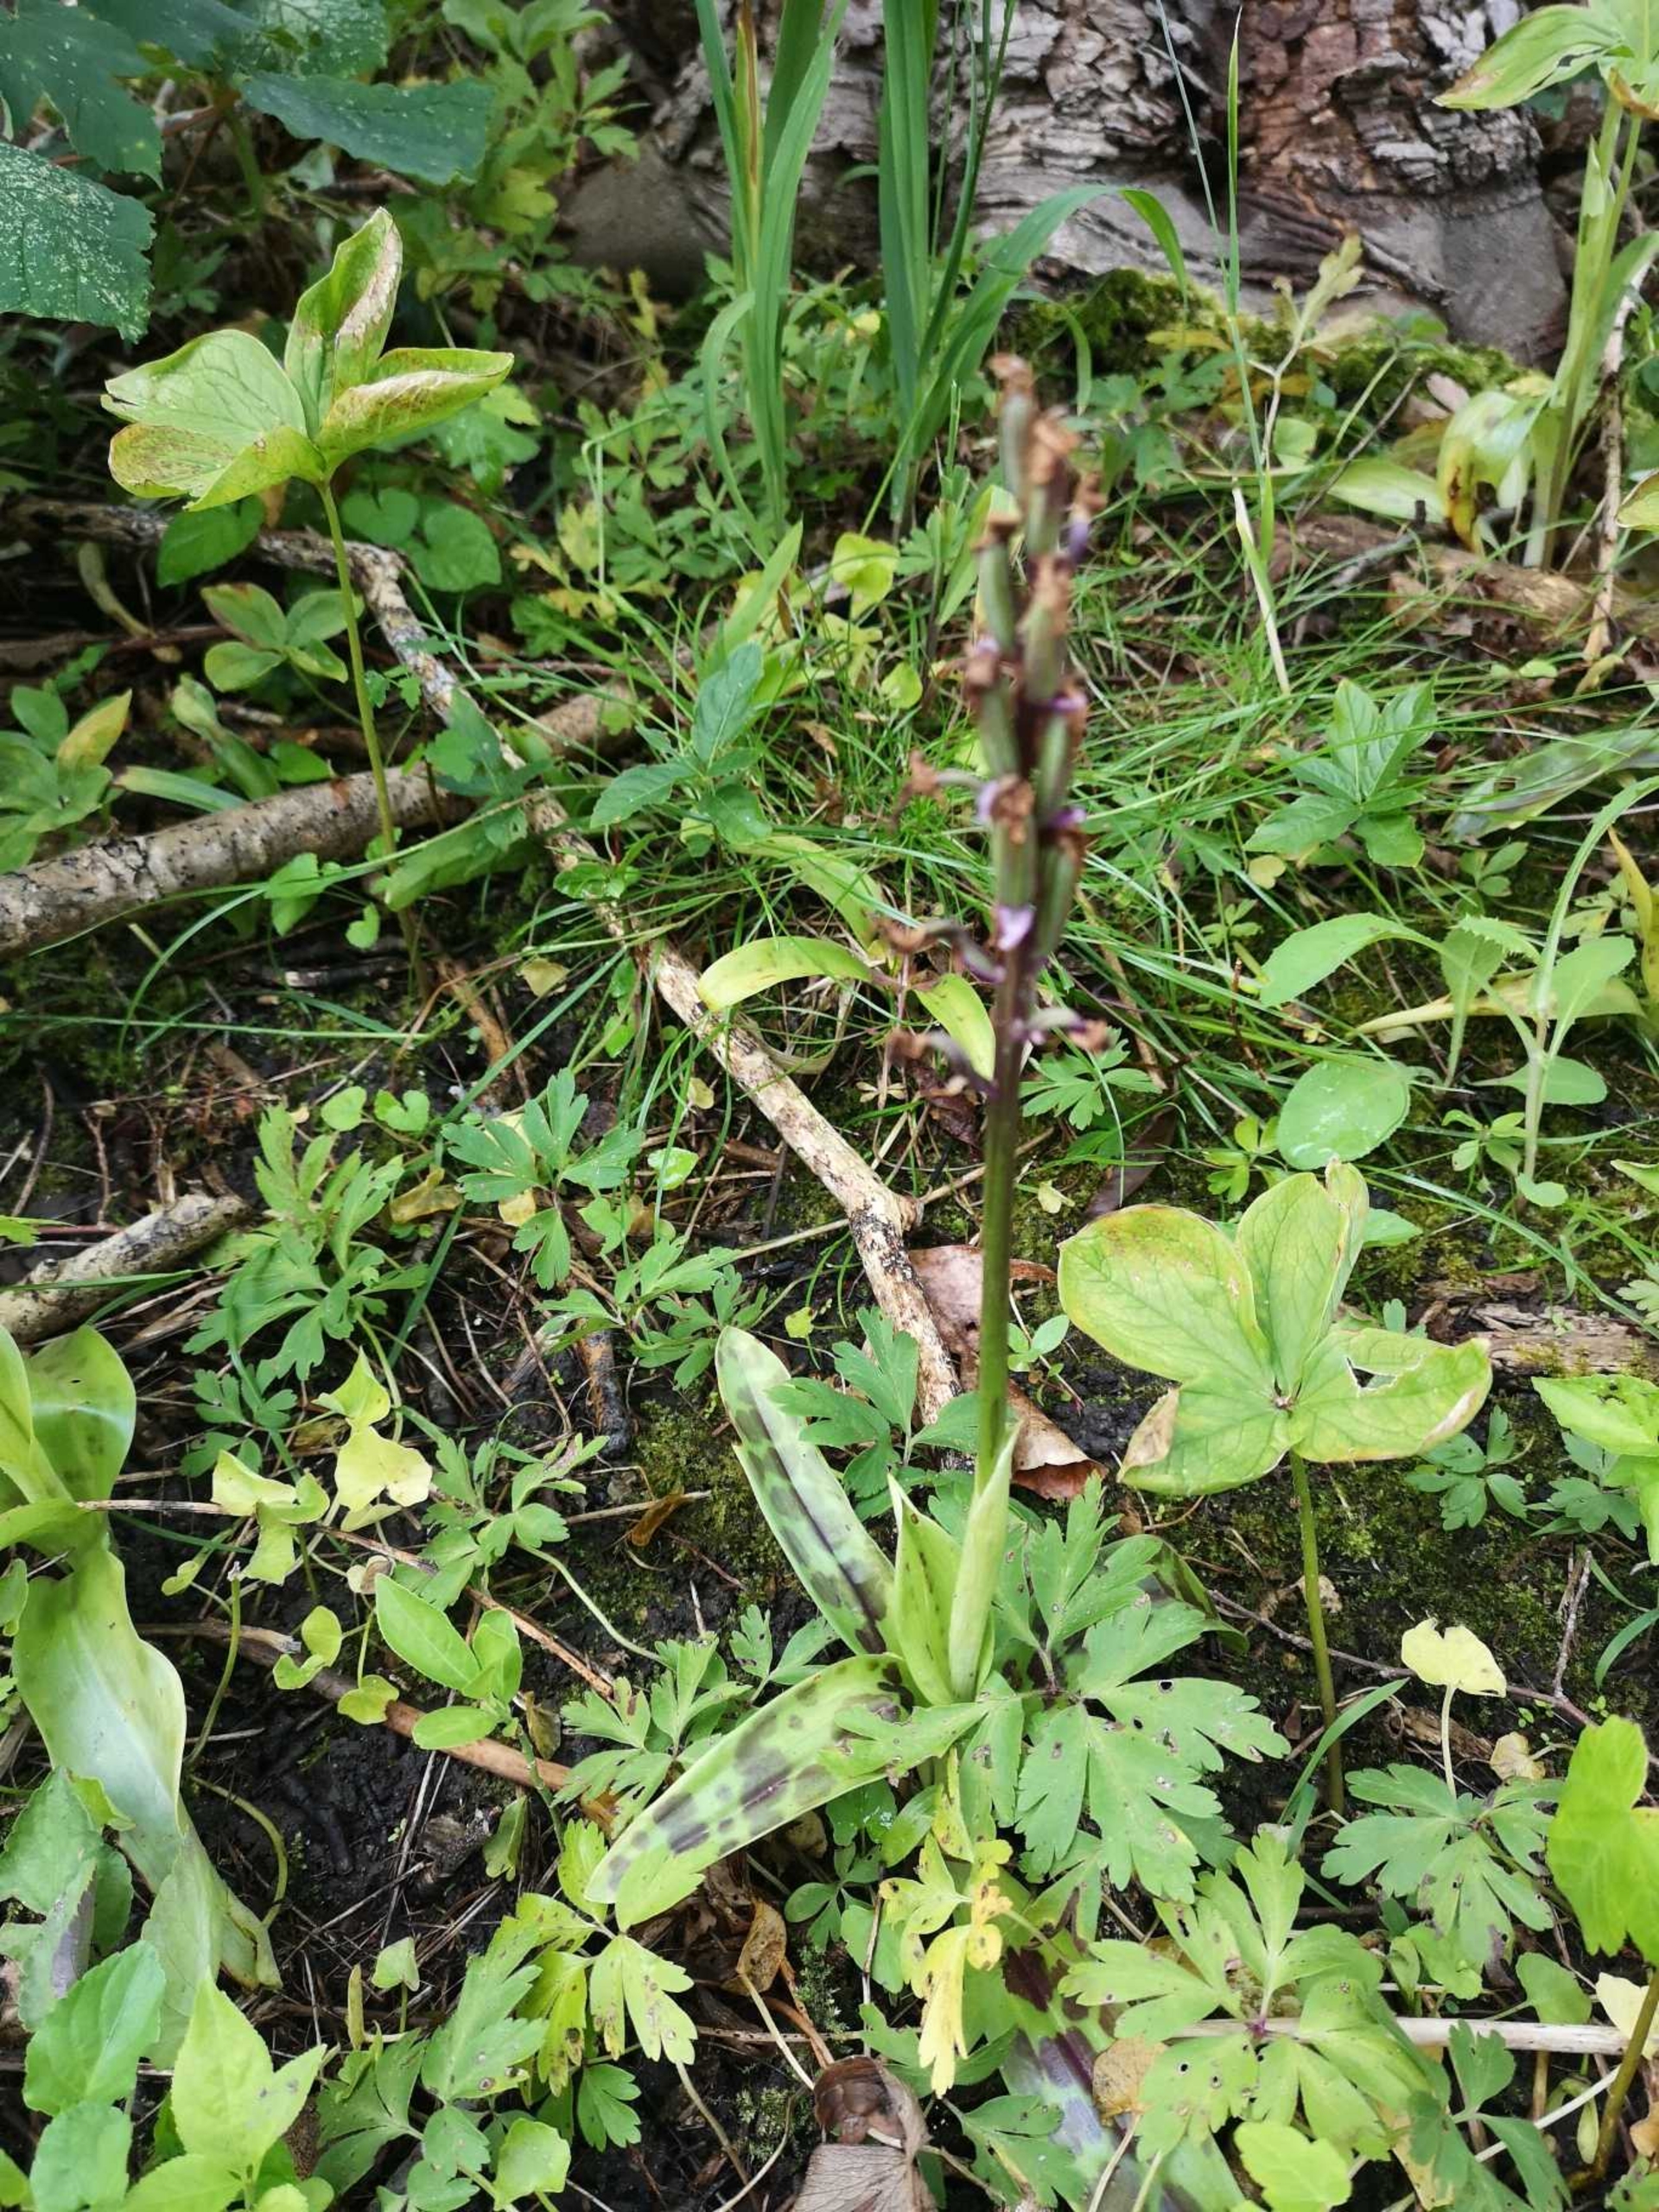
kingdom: Plantae
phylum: Tracheophyta
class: Liliopsida
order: Asparagales
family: Orchidaceae
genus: Orchis
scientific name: Orchis mascula
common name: Tyndakset gøgeurt
